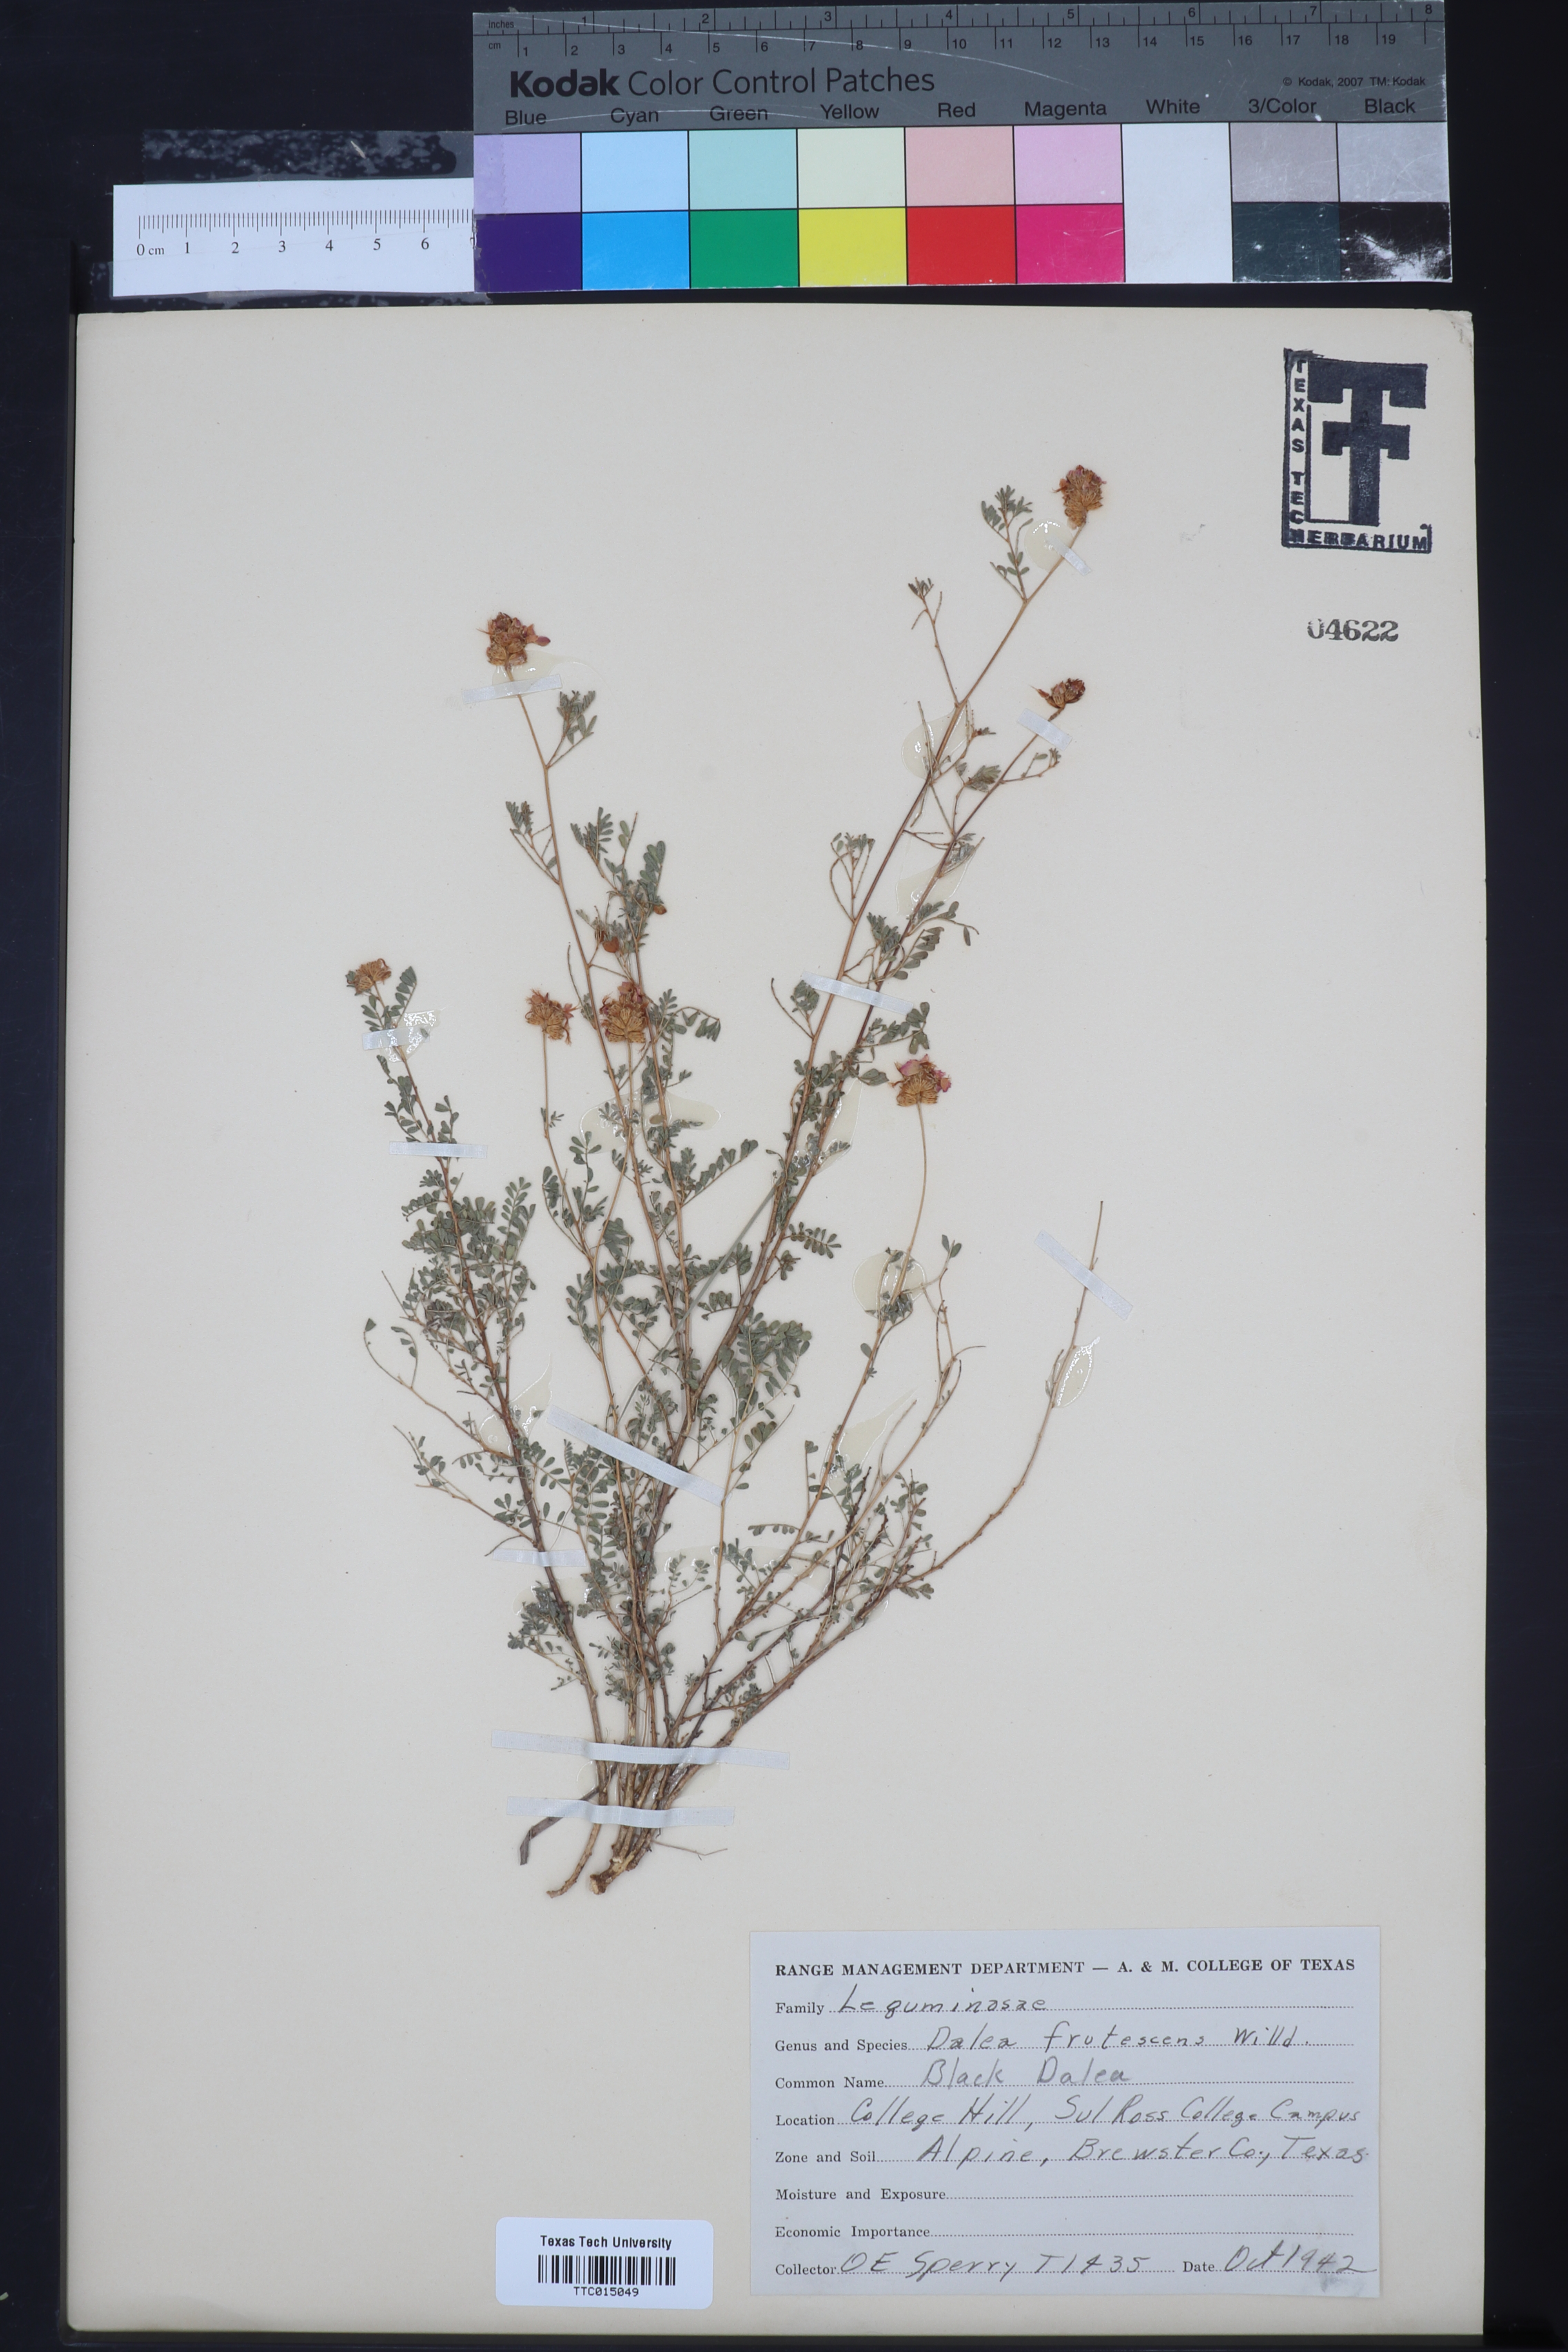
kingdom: Plantae
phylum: Tracheophyta
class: Magnoliopsida
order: Fabales
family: Fabaceae
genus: Dalea
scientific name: Dalea frutescens
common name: Black dalea
